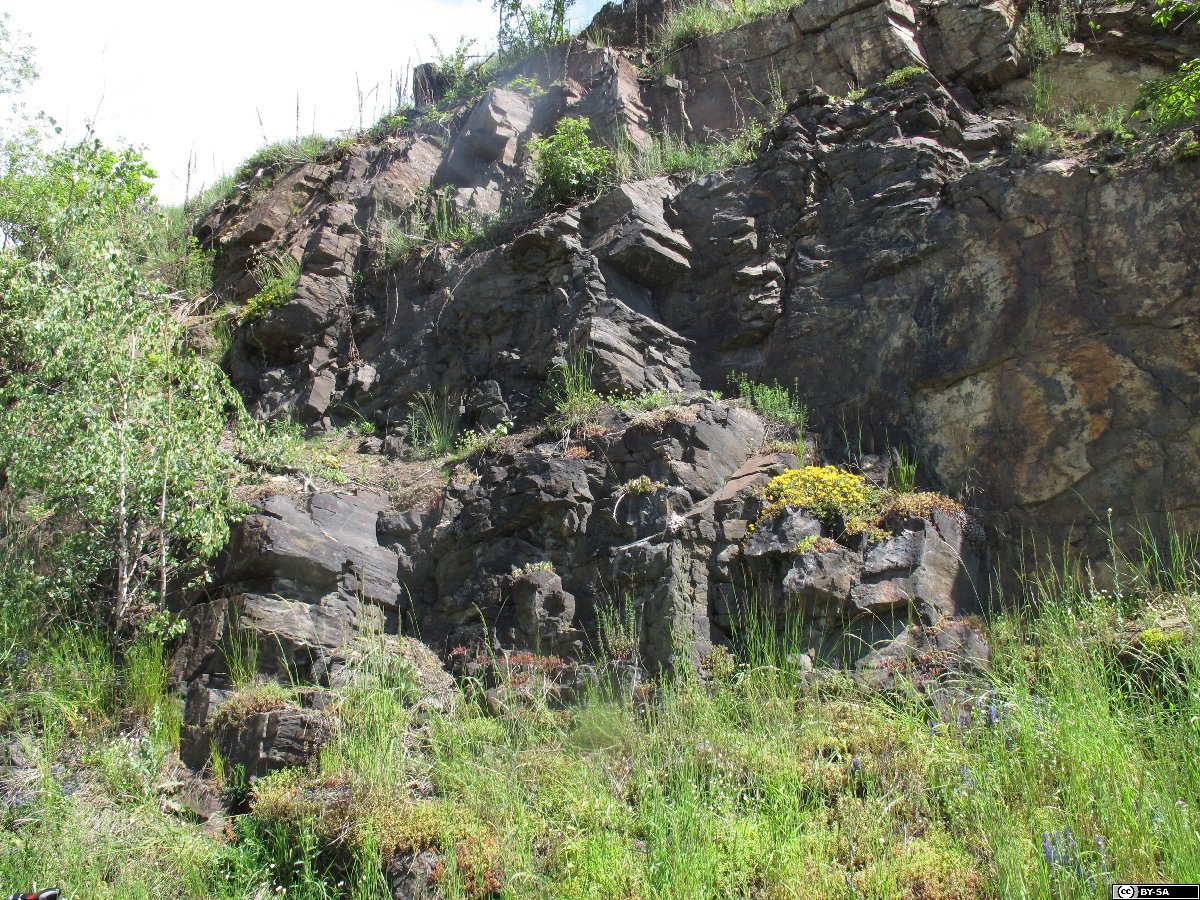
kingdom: Plantae
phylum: Tracheophyta
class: Magnoliopsida
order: Saxifragales
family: Crassulaceae
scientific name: Crassulaceae
